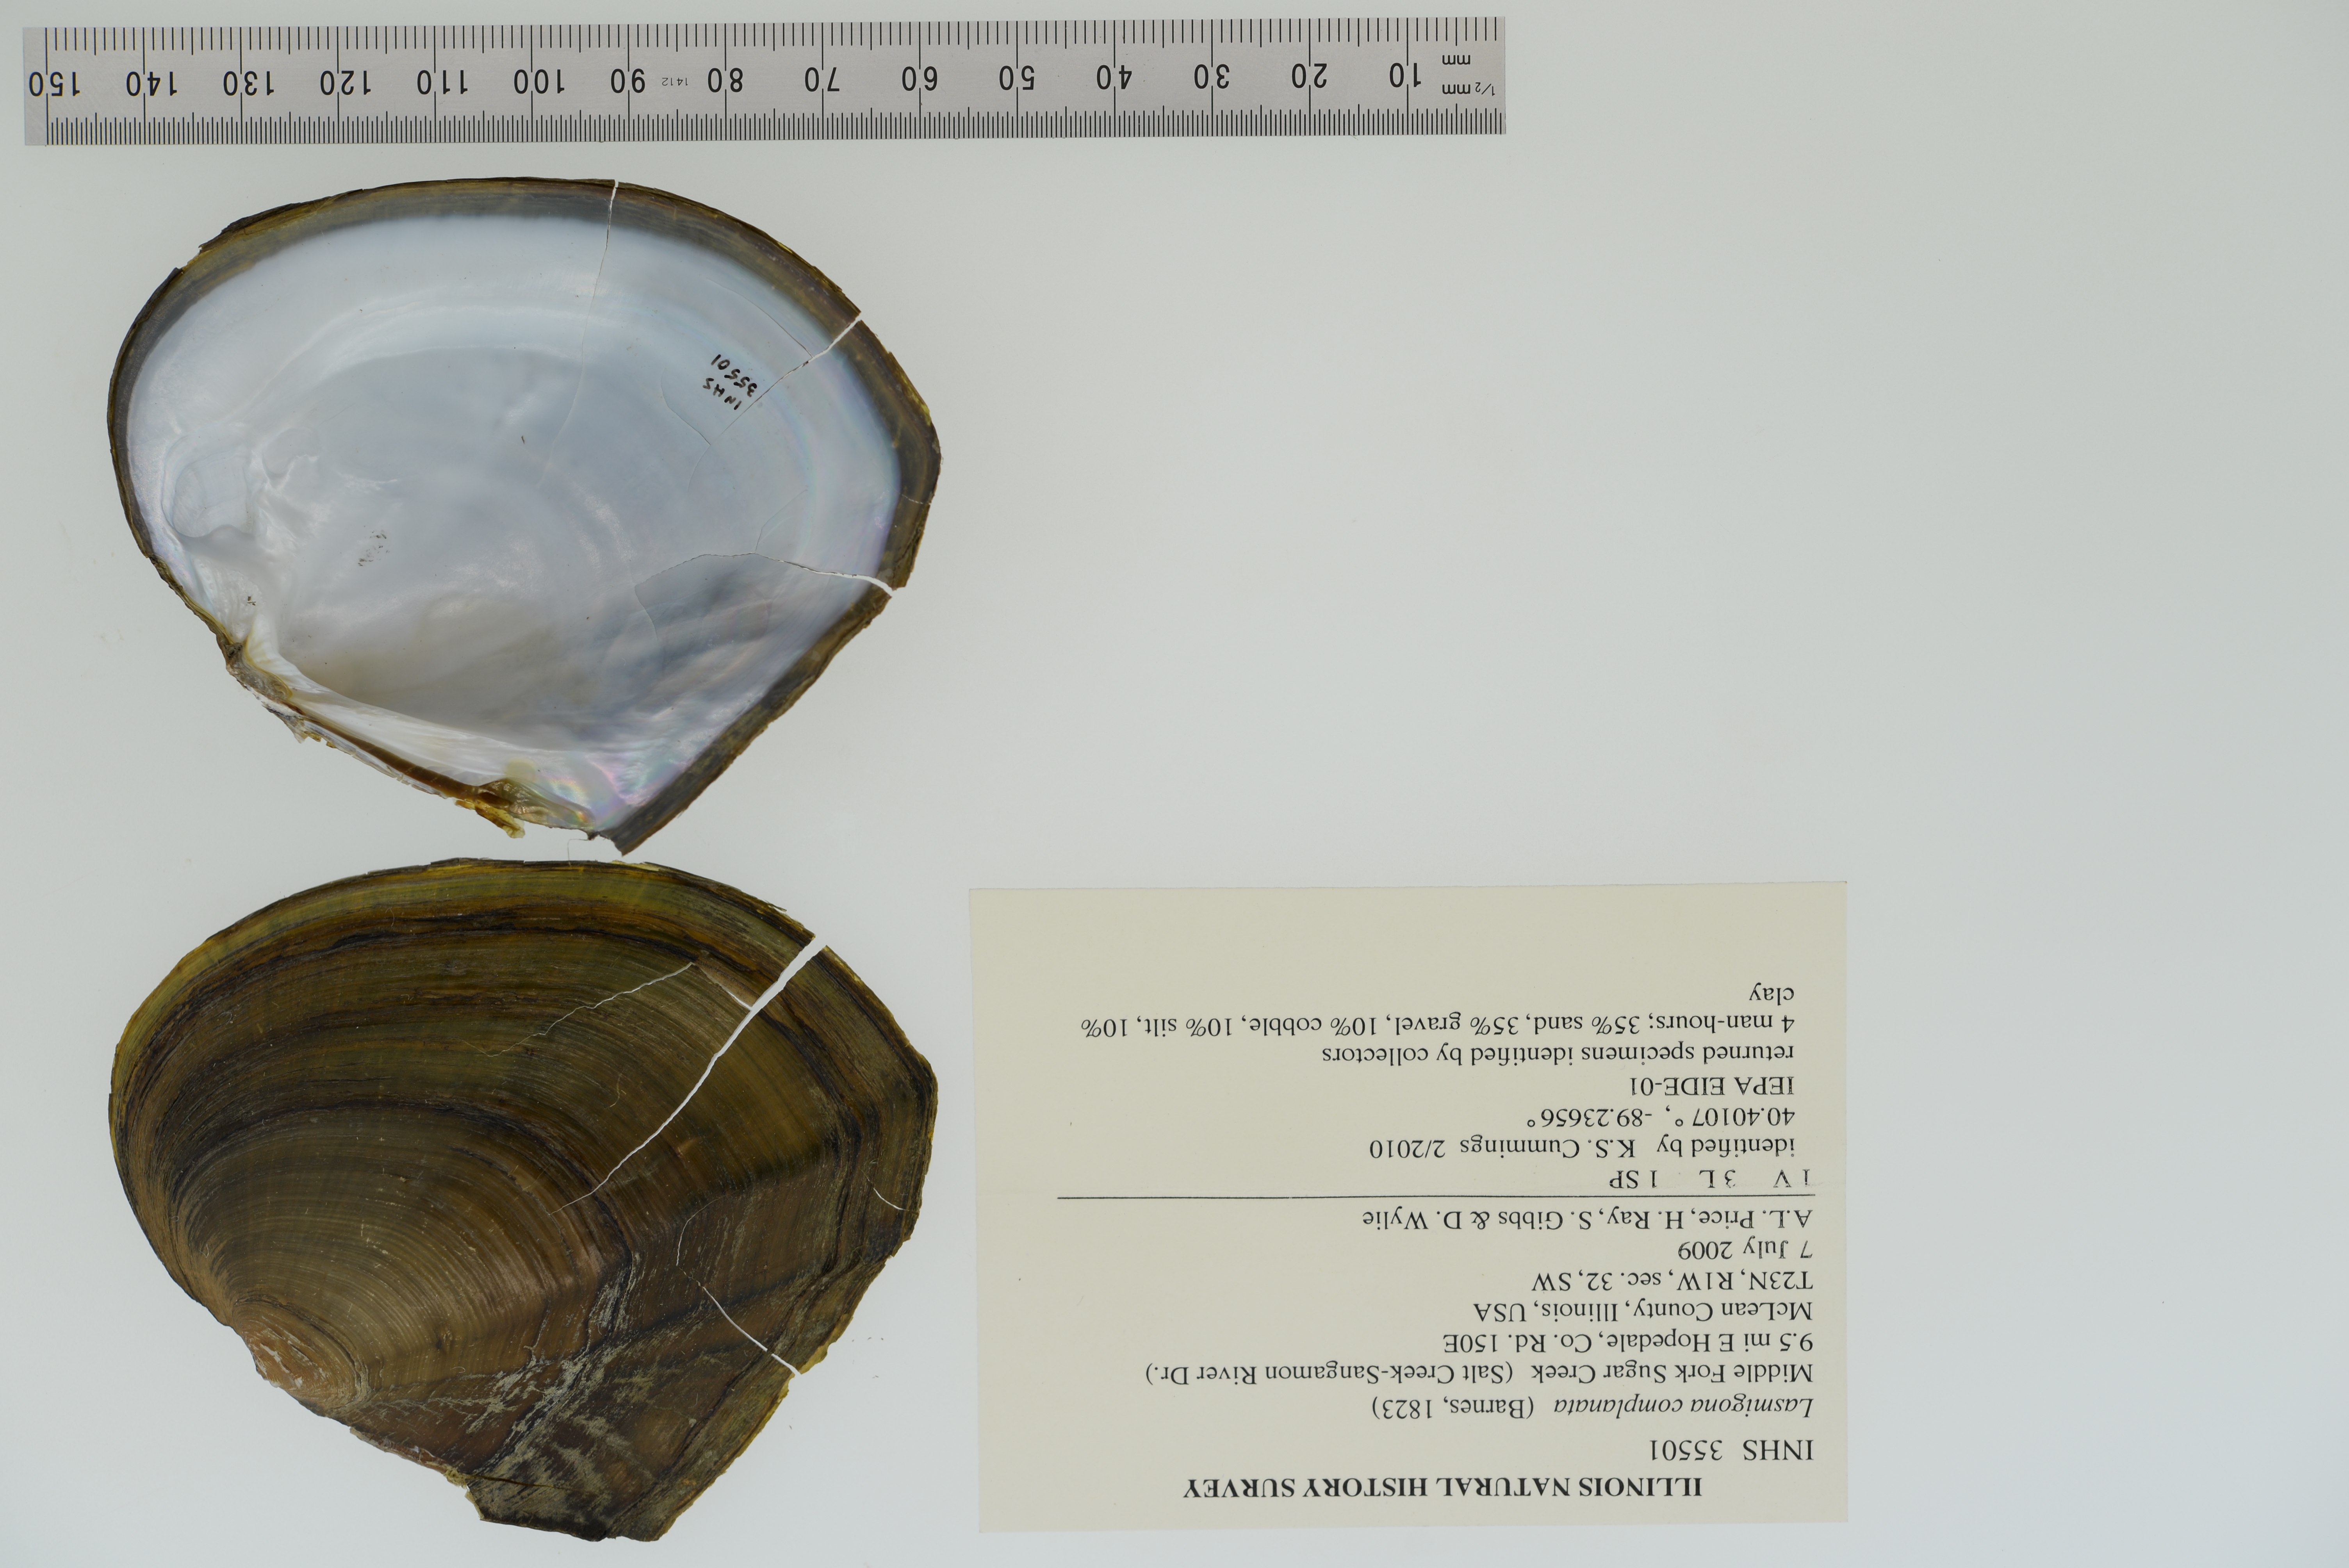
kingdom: Animalia
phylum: Mollusca
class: Bivalvia
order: Unionida
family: Unionidae
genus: Lasmigona
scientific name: Lasmigona complanata
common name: White heelsplitter
